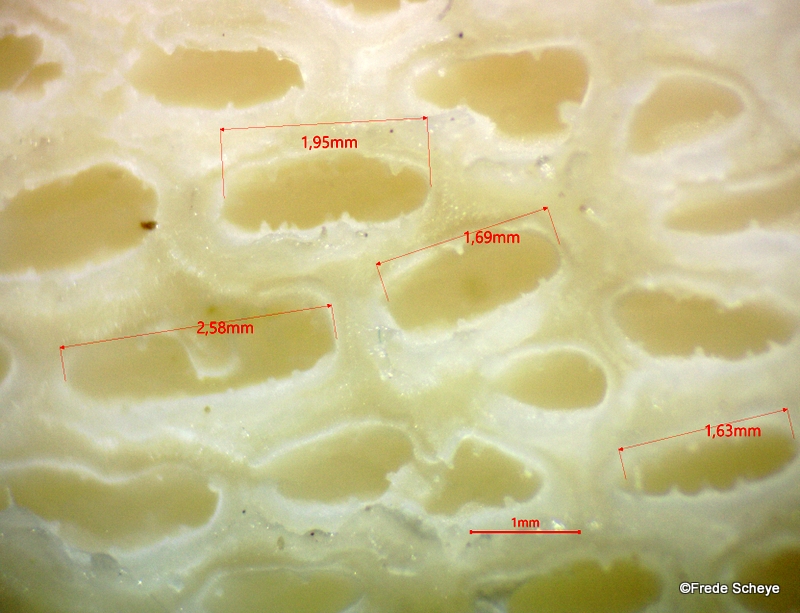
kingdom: Fungi
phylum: Basidiomycota
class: Agaricomycetes
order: Polyporales
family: Polyporaceae
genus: Cerioporus
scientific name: Cerioporus squamosus
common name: skællet stilkporesvamp
